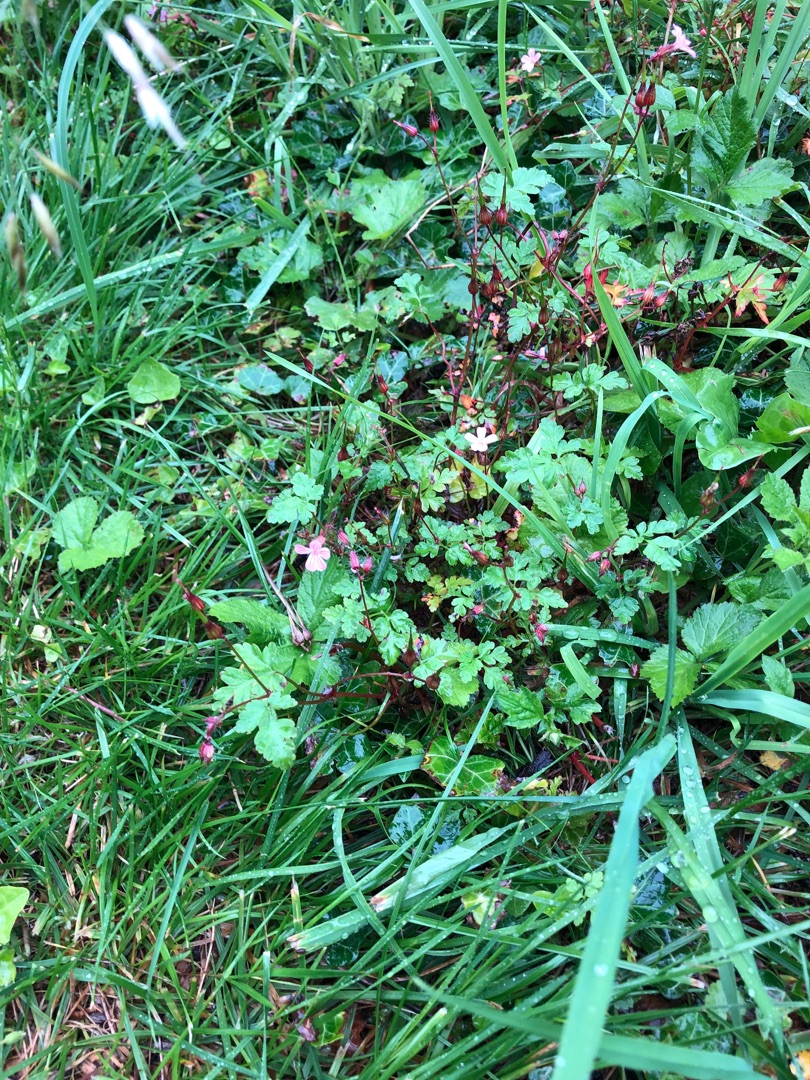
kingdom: Plantae
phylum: Tracheophyta
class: Magnoliopsida
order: Geraniales
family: Geraniaceae
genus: Geranium
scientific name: Geranium robertianum
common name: Stinkende storkenæb
